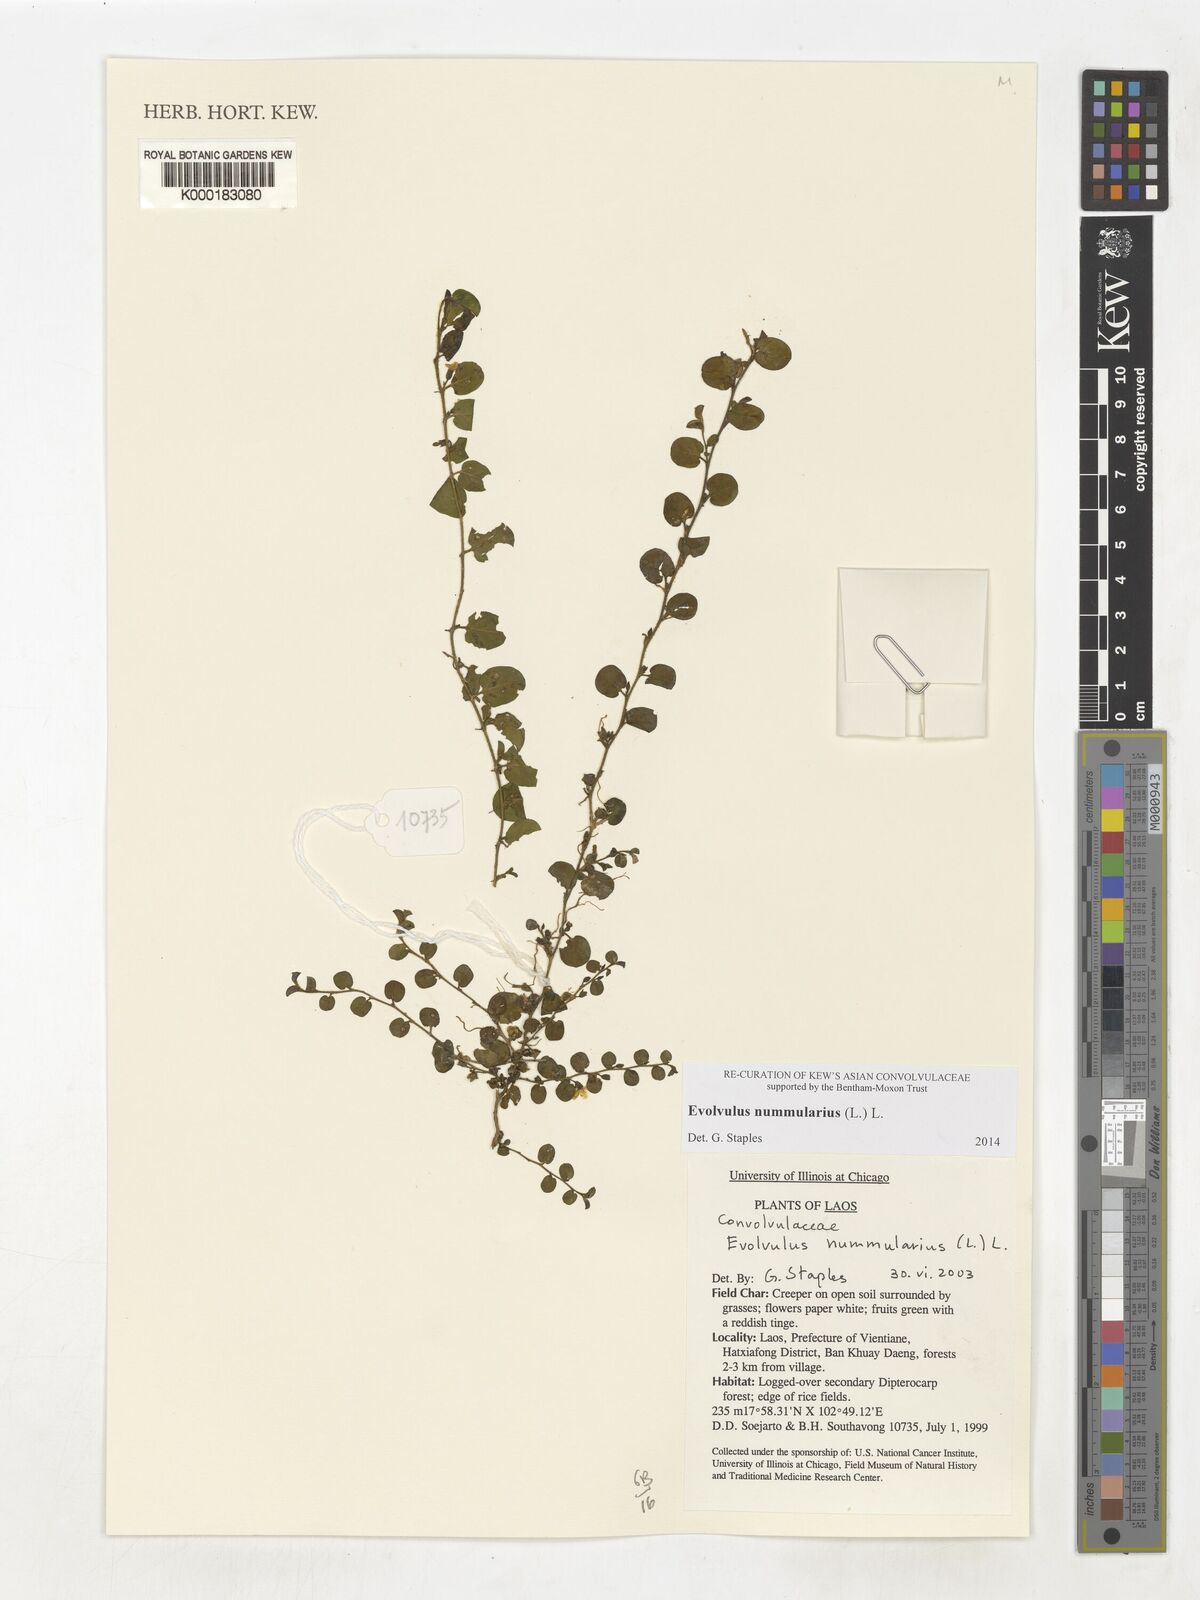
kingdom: Plantae
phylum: Tracheophyta
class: Magnoliopsida
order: Solanales
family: Convolvulaceae
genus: Evolvulus
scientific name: Evolvulus nummularius
